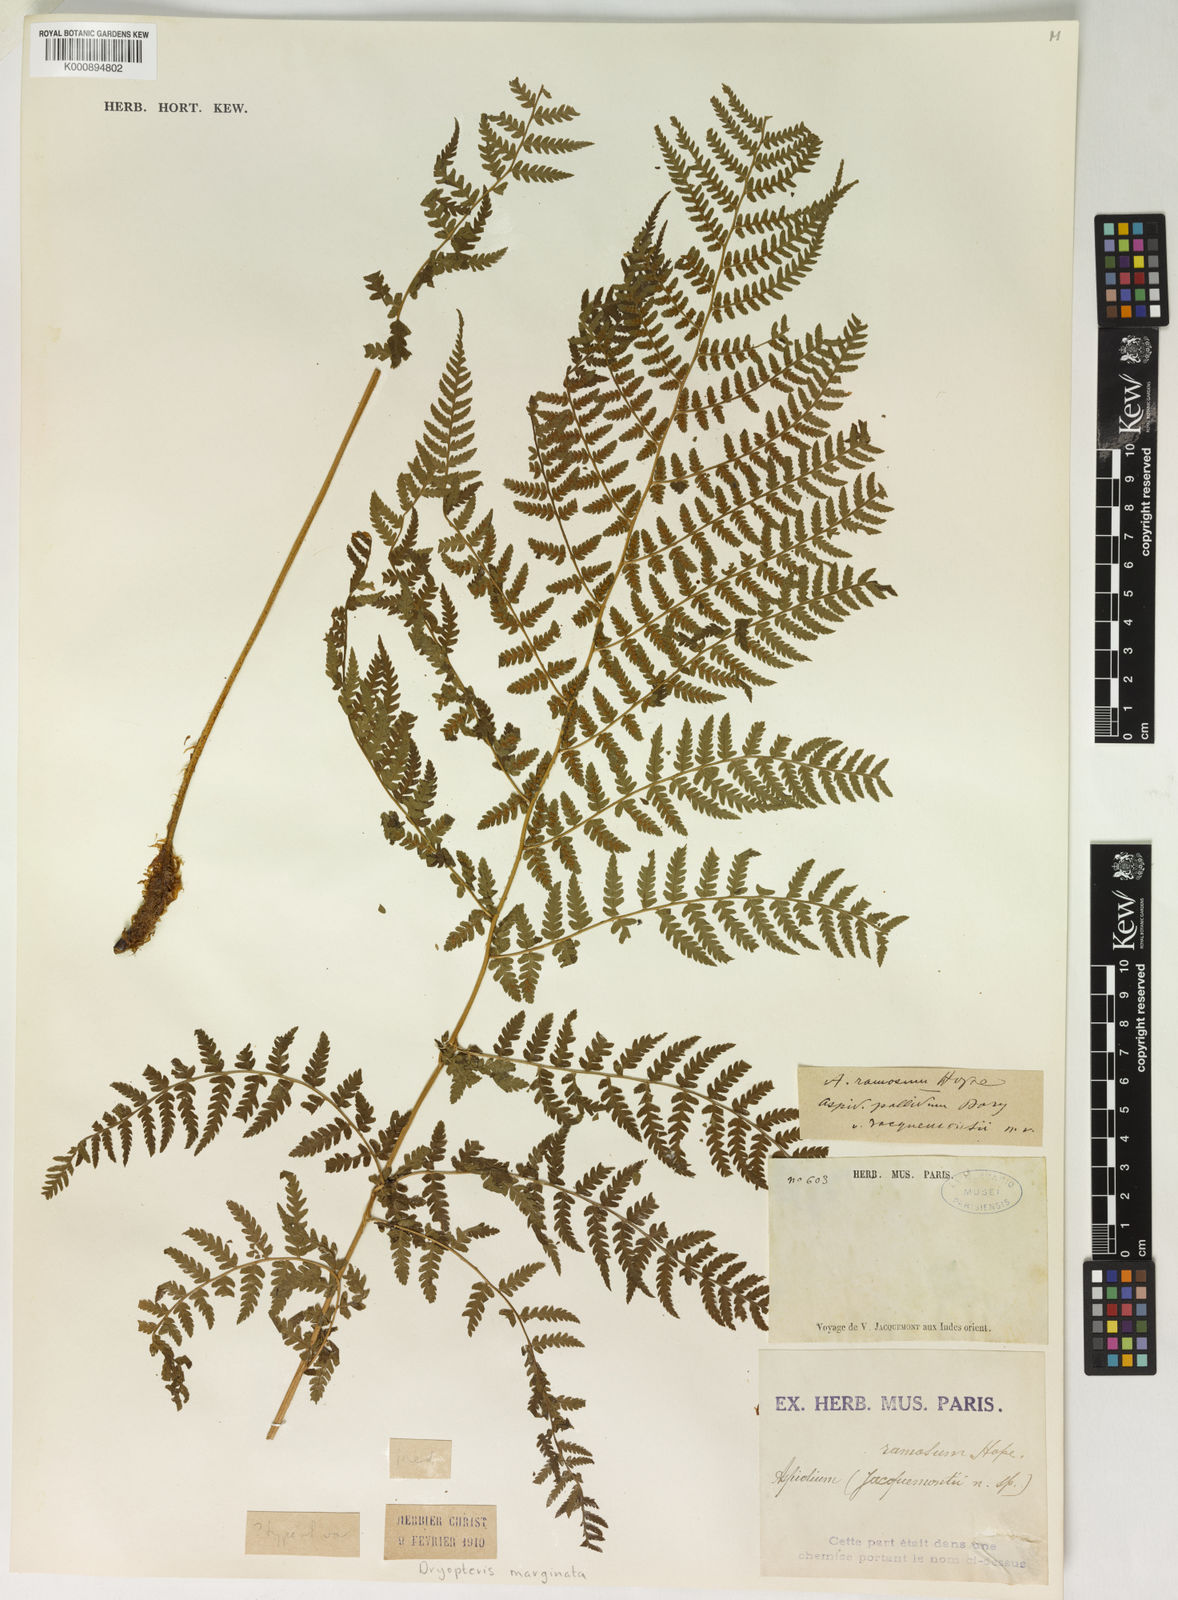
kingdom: Plantae
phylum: Tracheophyta
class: Polypodiopsida
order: Polypodiales
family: Dryopteridaceae
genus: Dryopteris
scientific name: Dryopteris marginata
